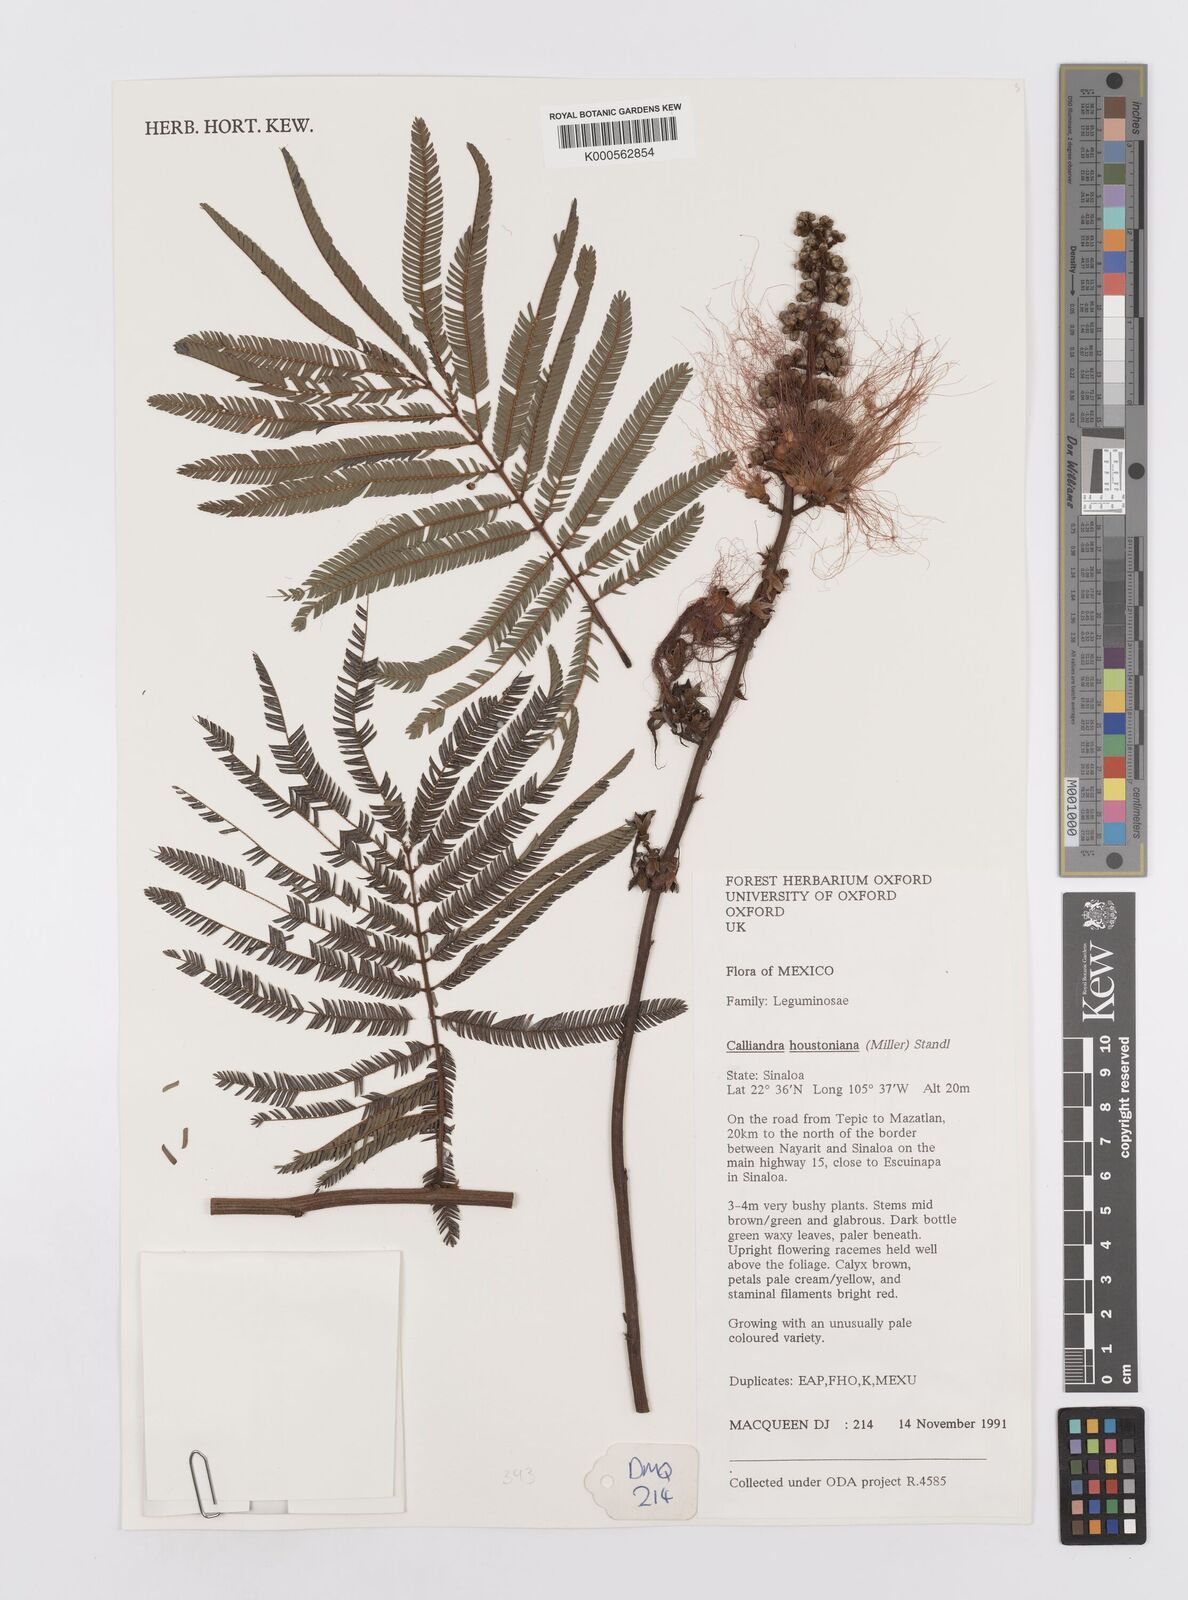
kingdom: Plantae
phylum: Tracheophyta
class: Magnoliopsida
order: Fabales
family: Fabaceae
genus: Calliandra
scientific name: Calliandra houstoniana
